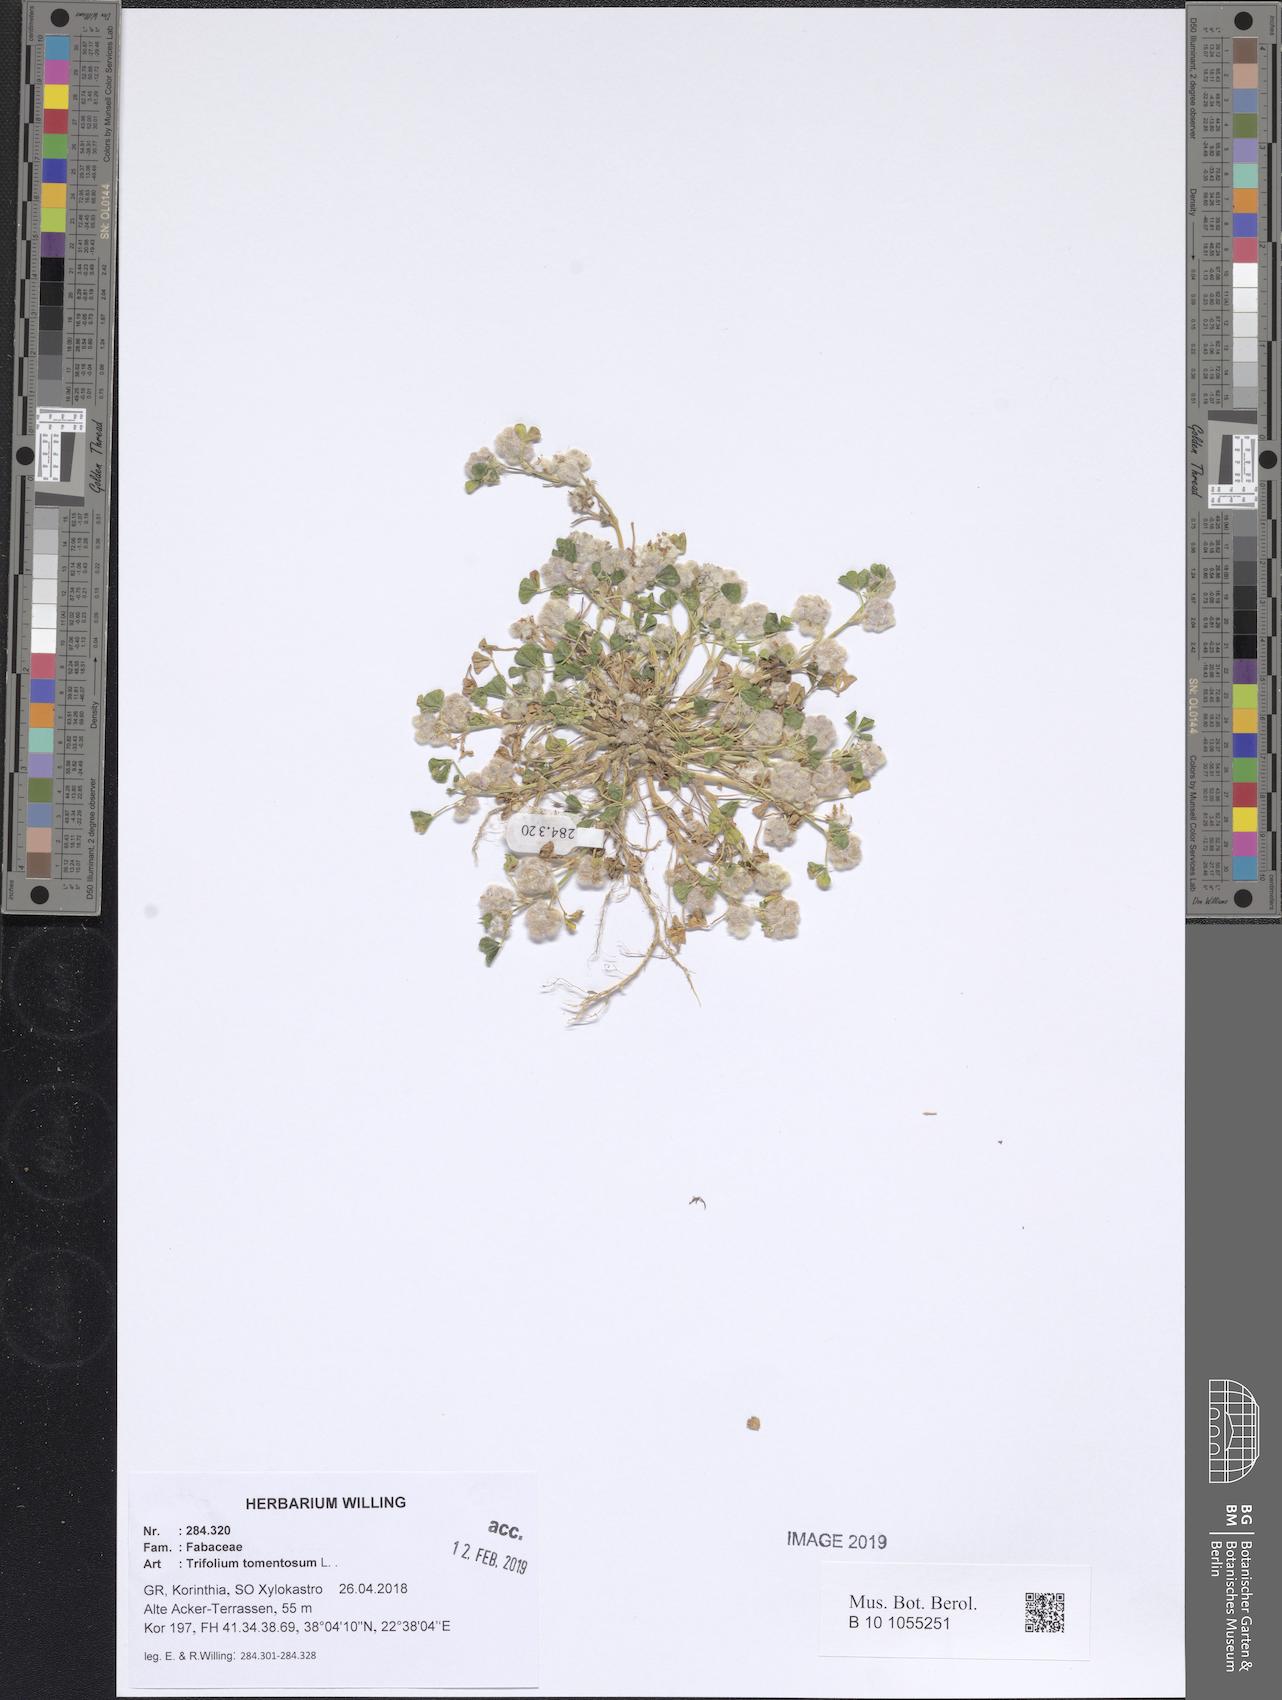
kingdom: Plantae
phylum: Tracheophyta
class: Magnoliopsida
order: Fabales
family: Fabaceae
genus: Trifolium
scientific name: Trifolium tomentosum
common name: Woolly clover
